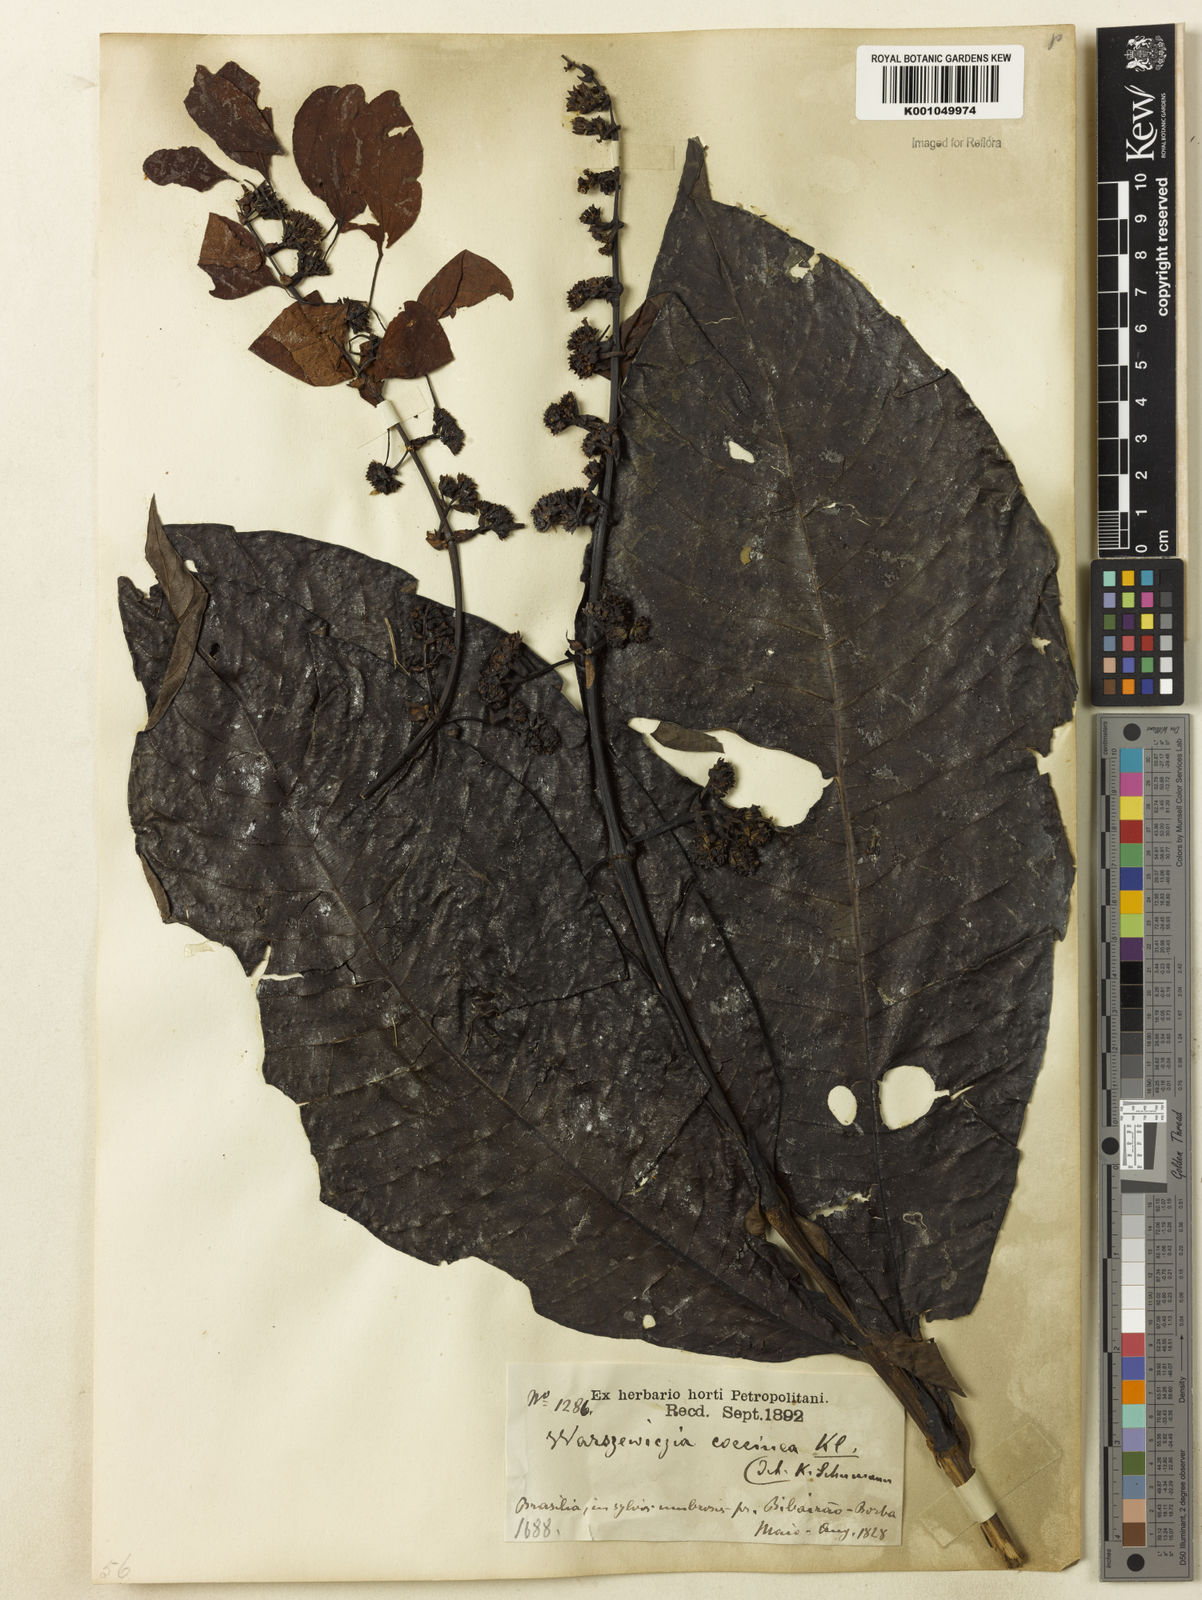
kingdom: Plantae
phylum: Tracheophyta
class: Magnoliopsida
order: Gentianales
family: Rubiaceae
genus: Warszewiczia
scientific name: Warszewiczia coccinea
